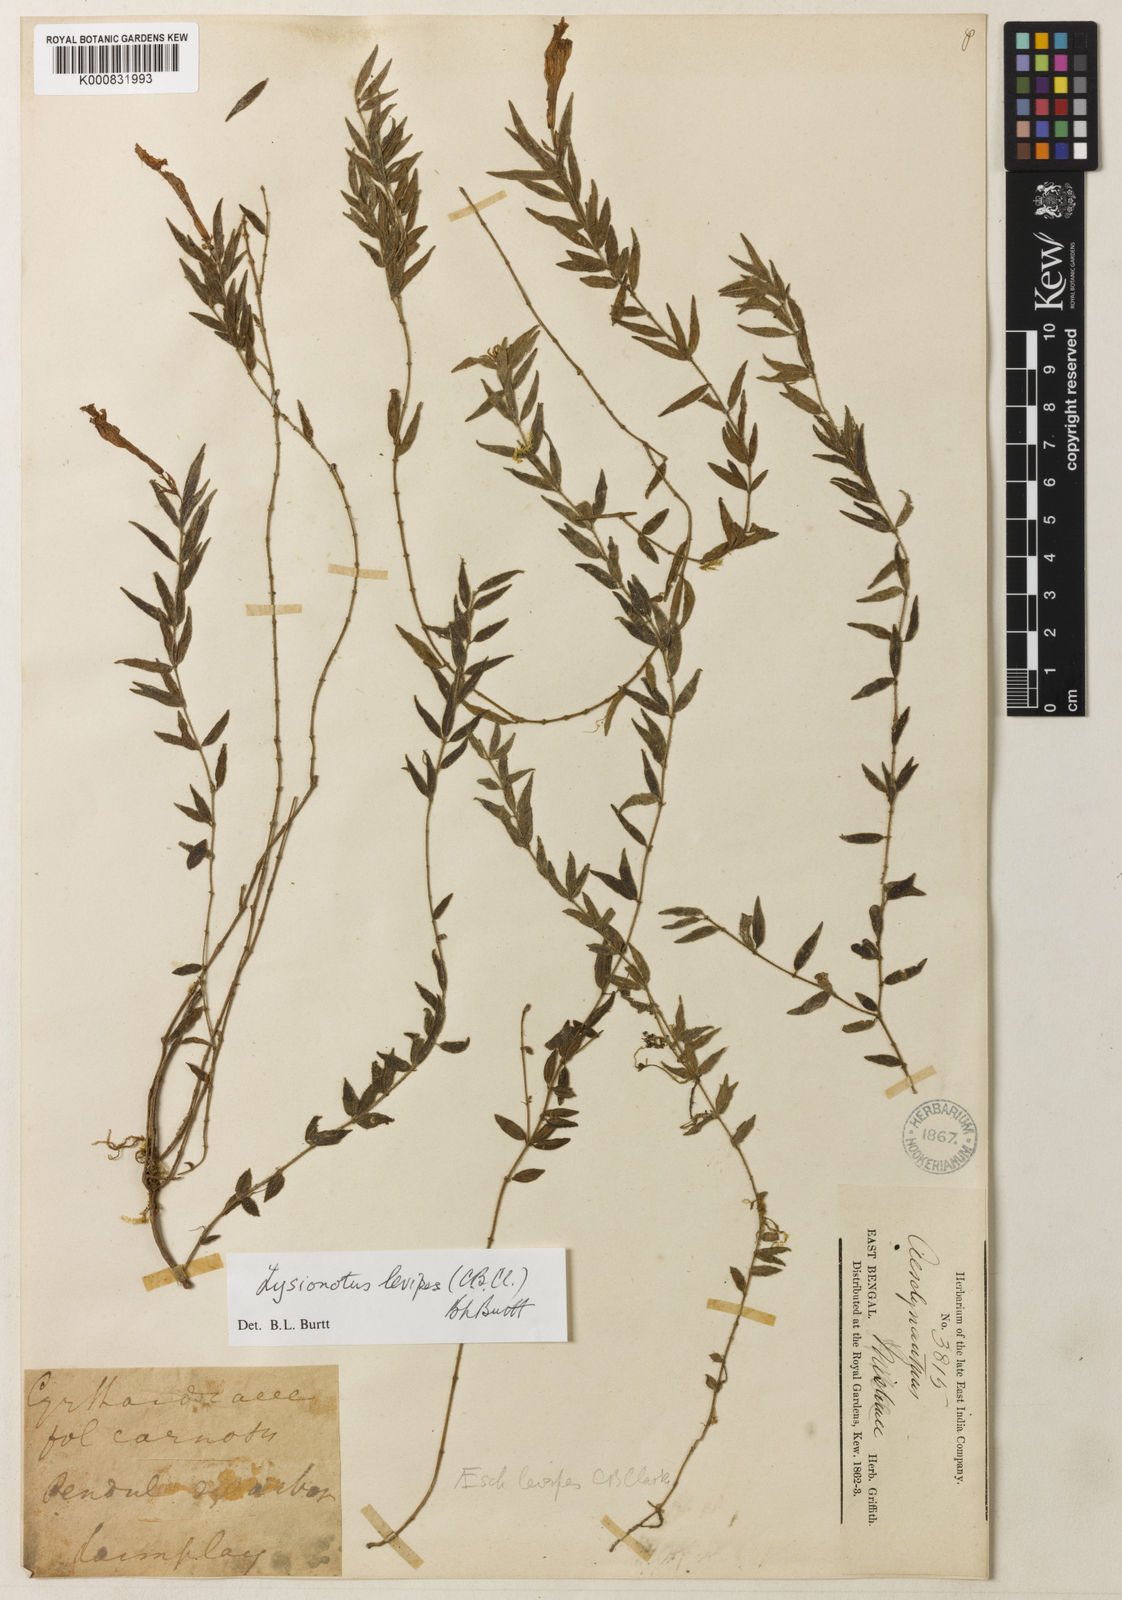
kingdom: Plantae
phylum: Tracheophyta
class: Magnoliopsida
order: Lamiales
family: Gesneriaceae
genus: Lysionotus
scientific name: Lysionotus levipes
